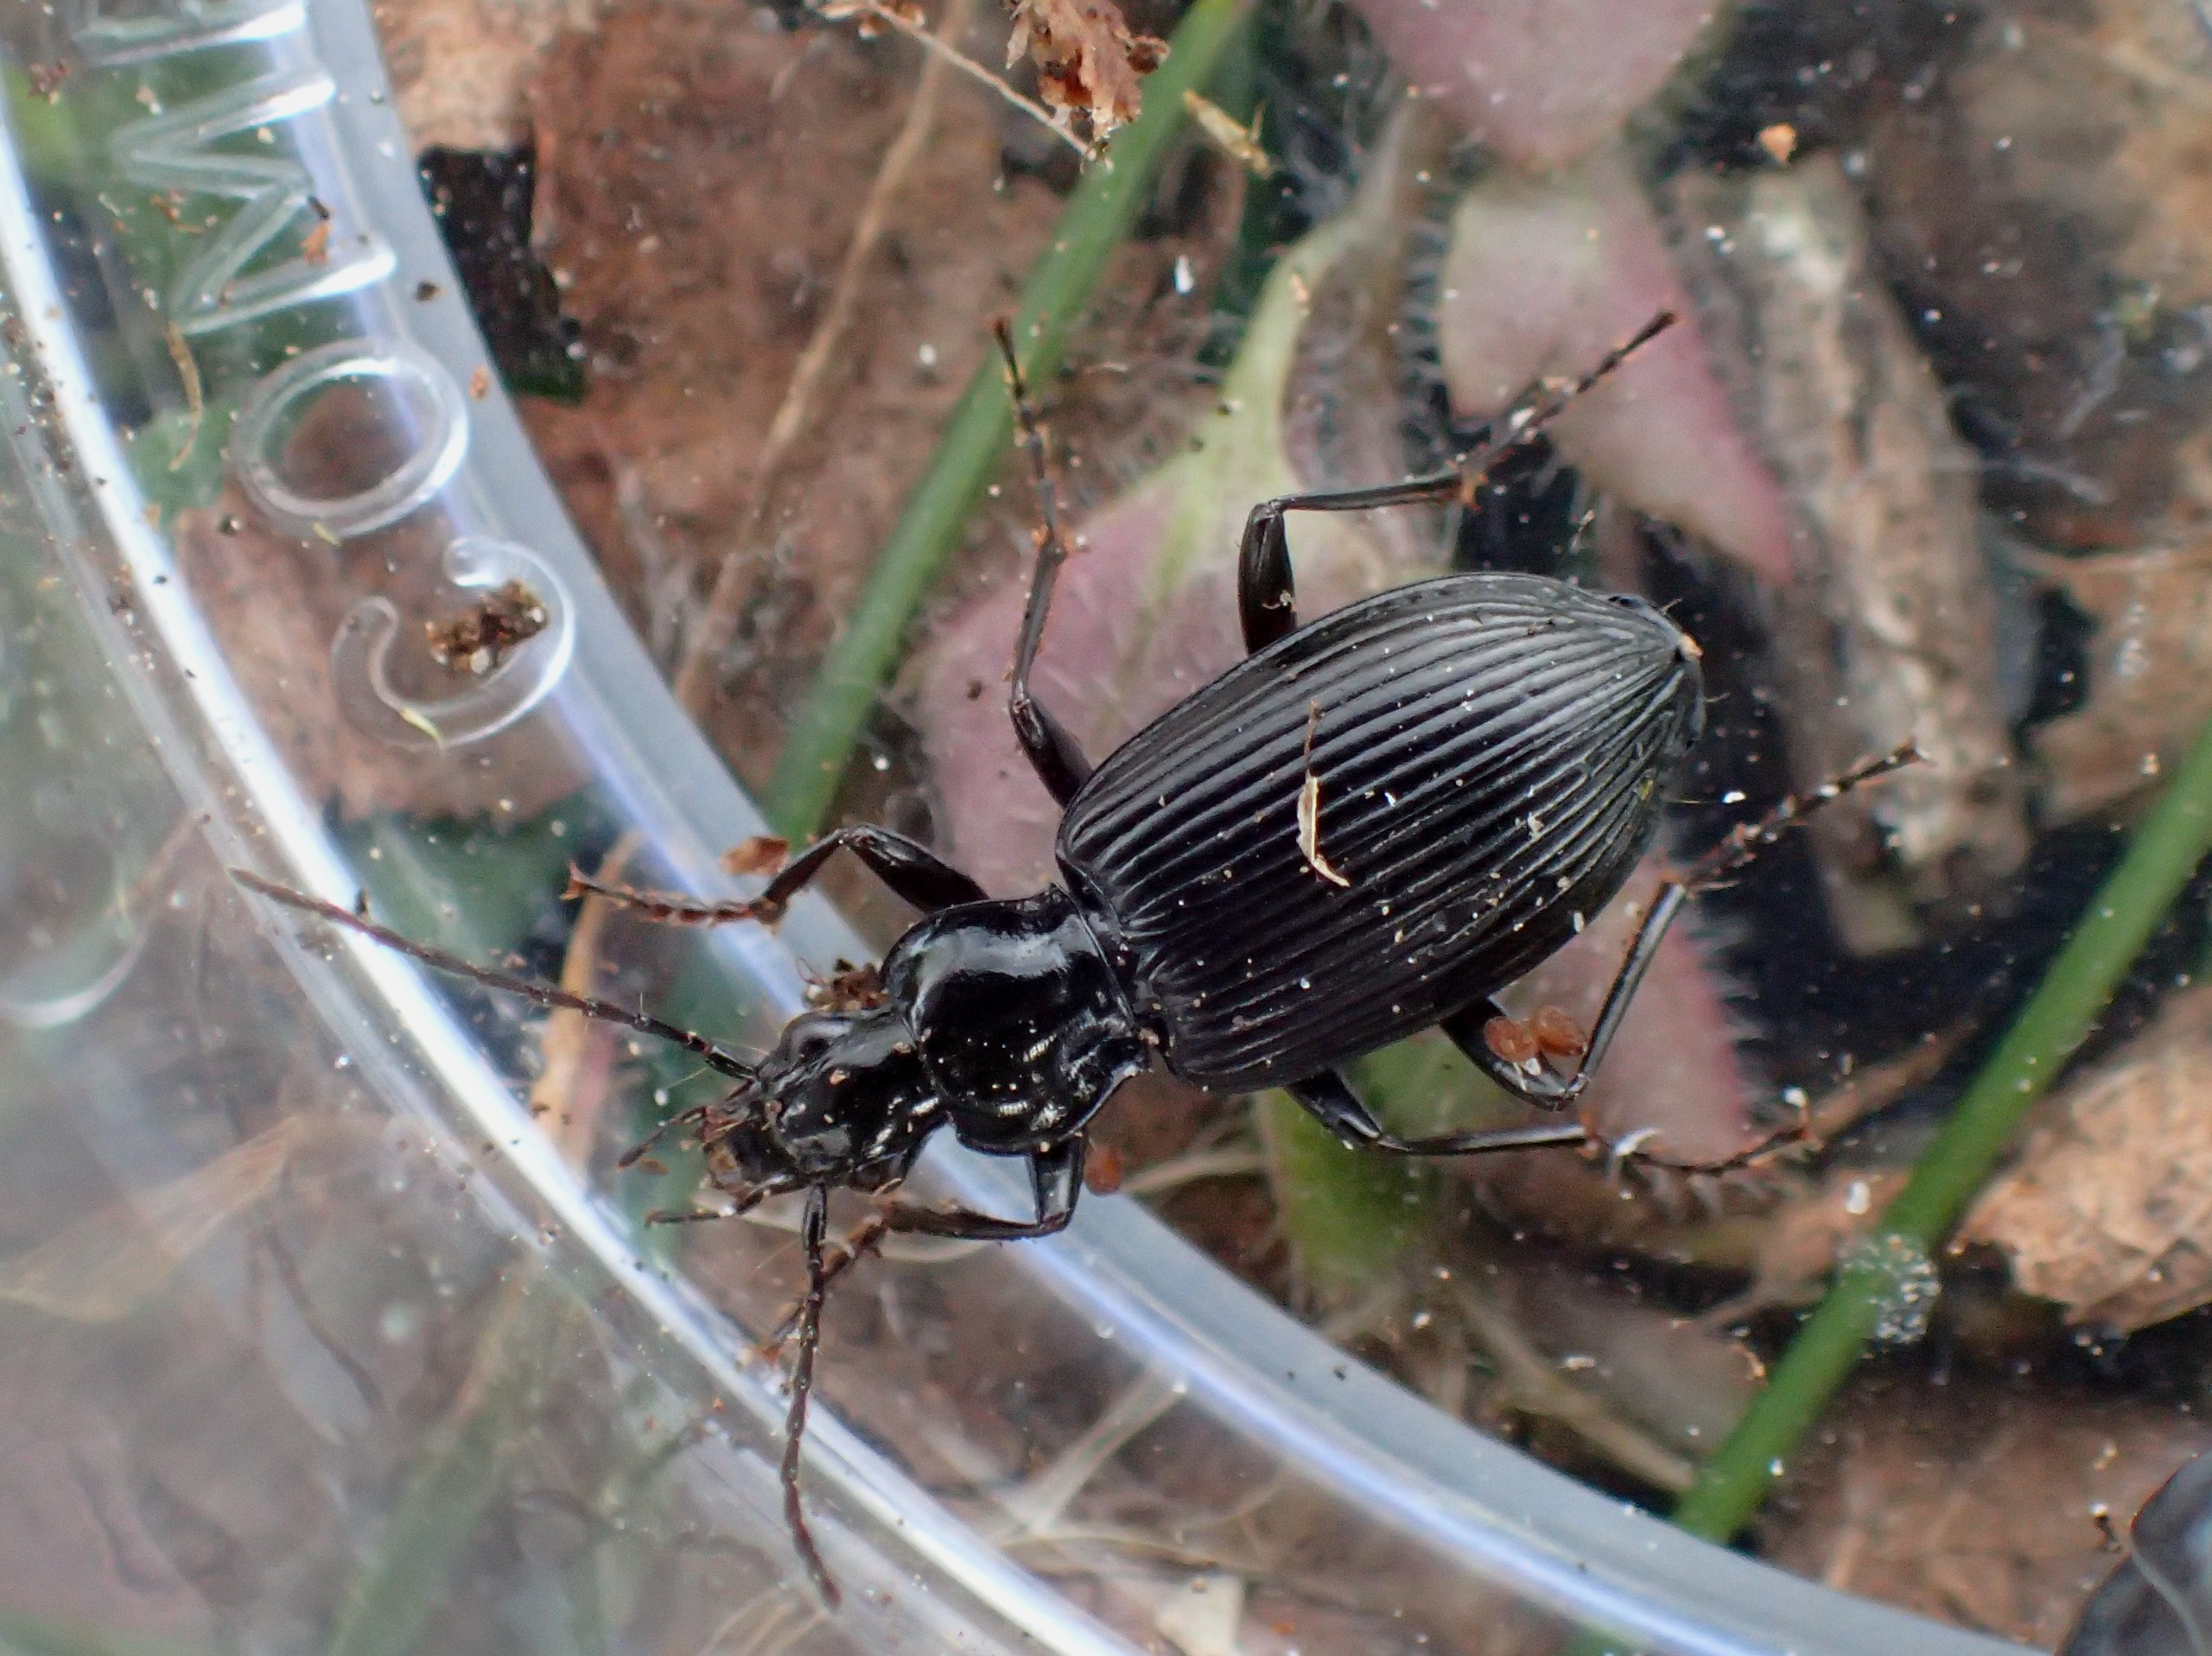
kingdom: Animalia
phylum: Arthropoda
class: Insecta
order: Coleoptera
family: Carabidae
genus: Platynus
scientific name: Platynus assimilis
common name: Skovkvikløber
